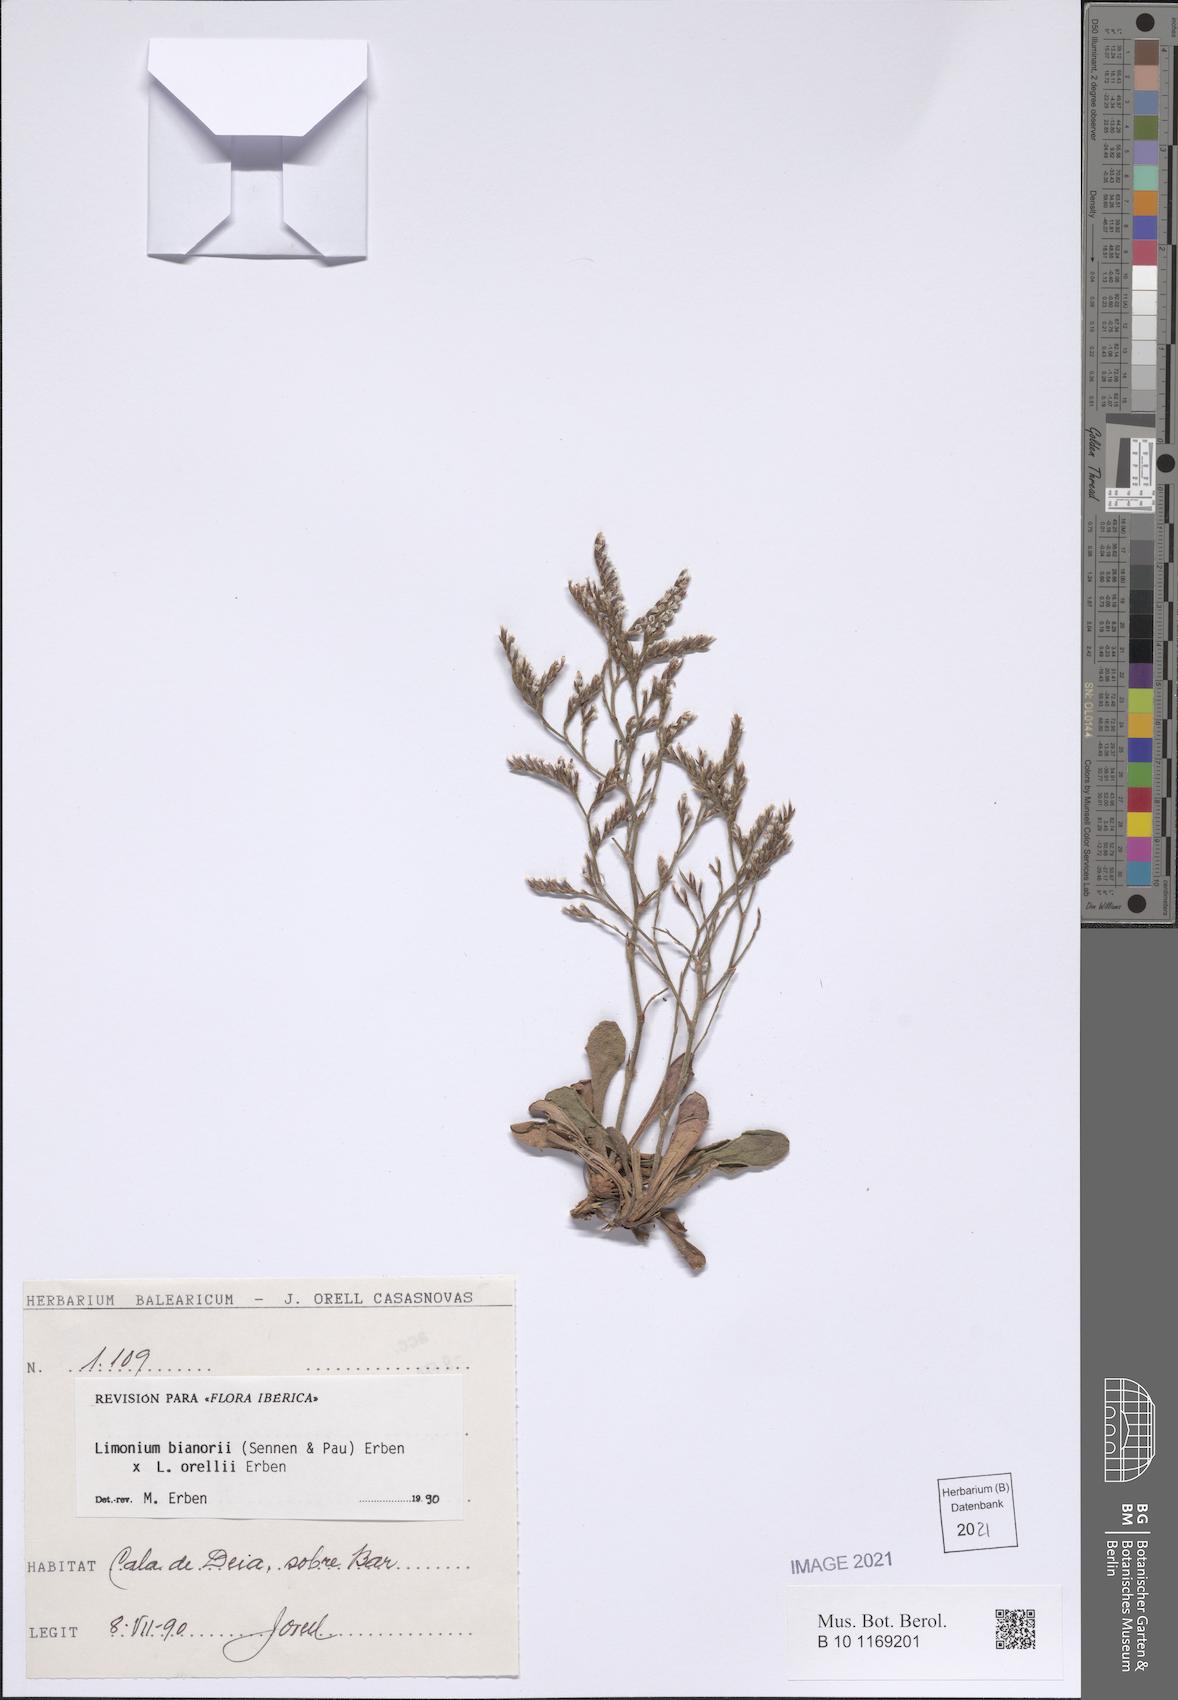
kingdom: Plantae
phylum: Tracheophyta
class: Magnoliopsida
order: Caryophyllales
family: Plumbaginaceae
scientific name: Plumbaginaceae
